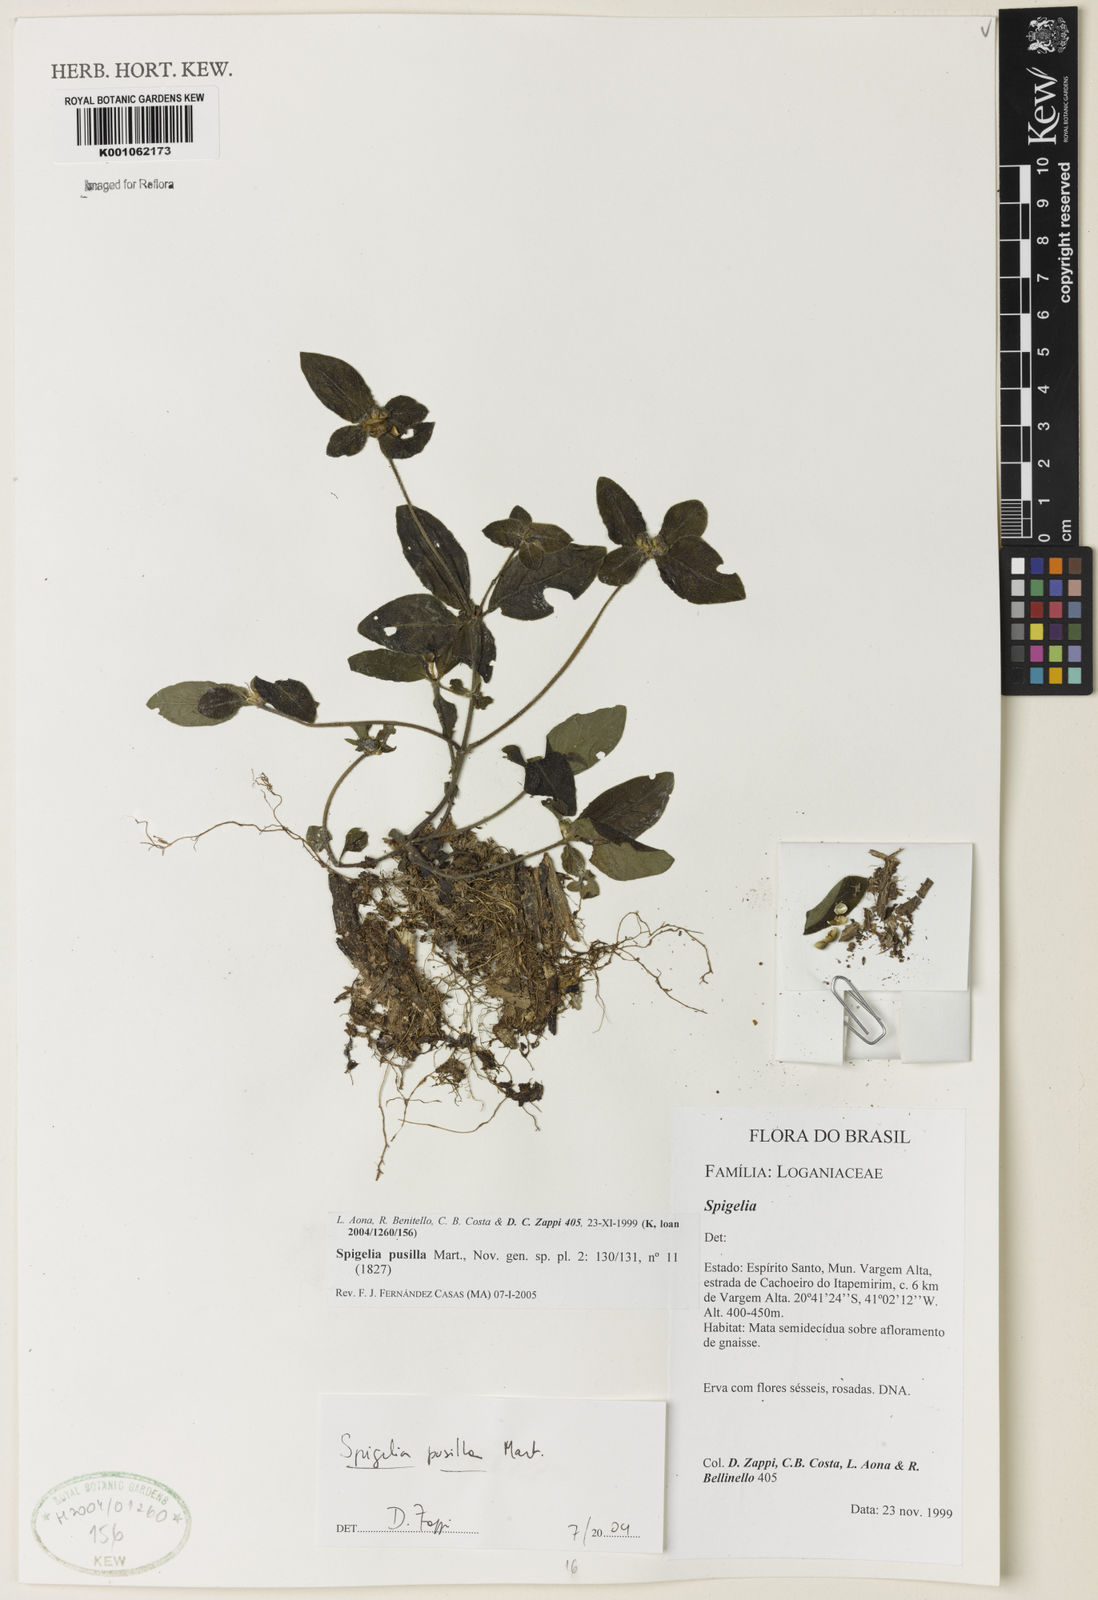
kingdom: Plantae
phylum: Tracheophyta
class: Magnoliopsida
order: Gentianales
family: Loganiaceae
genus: Spigelia
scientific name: Spigelia pusilla
